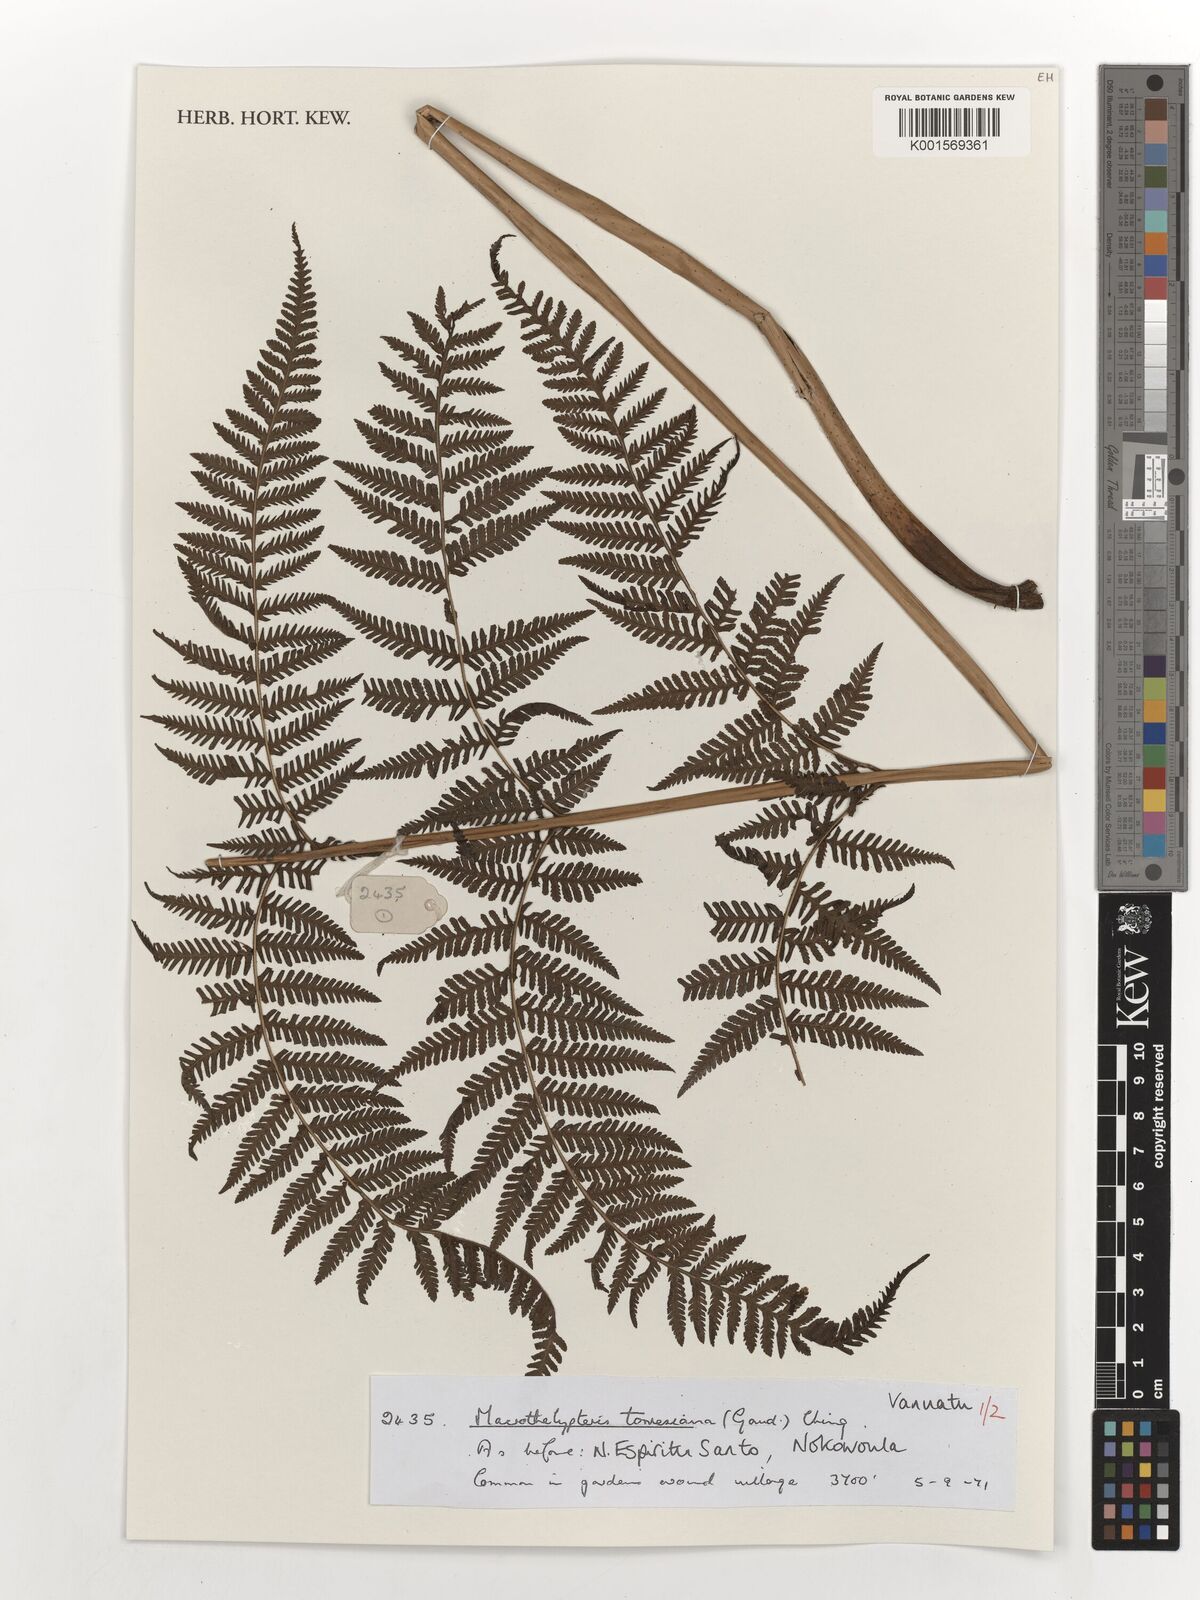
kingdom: Plantae
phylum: Tracheophyta
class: Polypodiopsida
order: Polypodiales
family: Thelypteridaceae
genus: Macrothelypteris
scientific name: Macrothelypteris torresiana
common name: Swordfern
